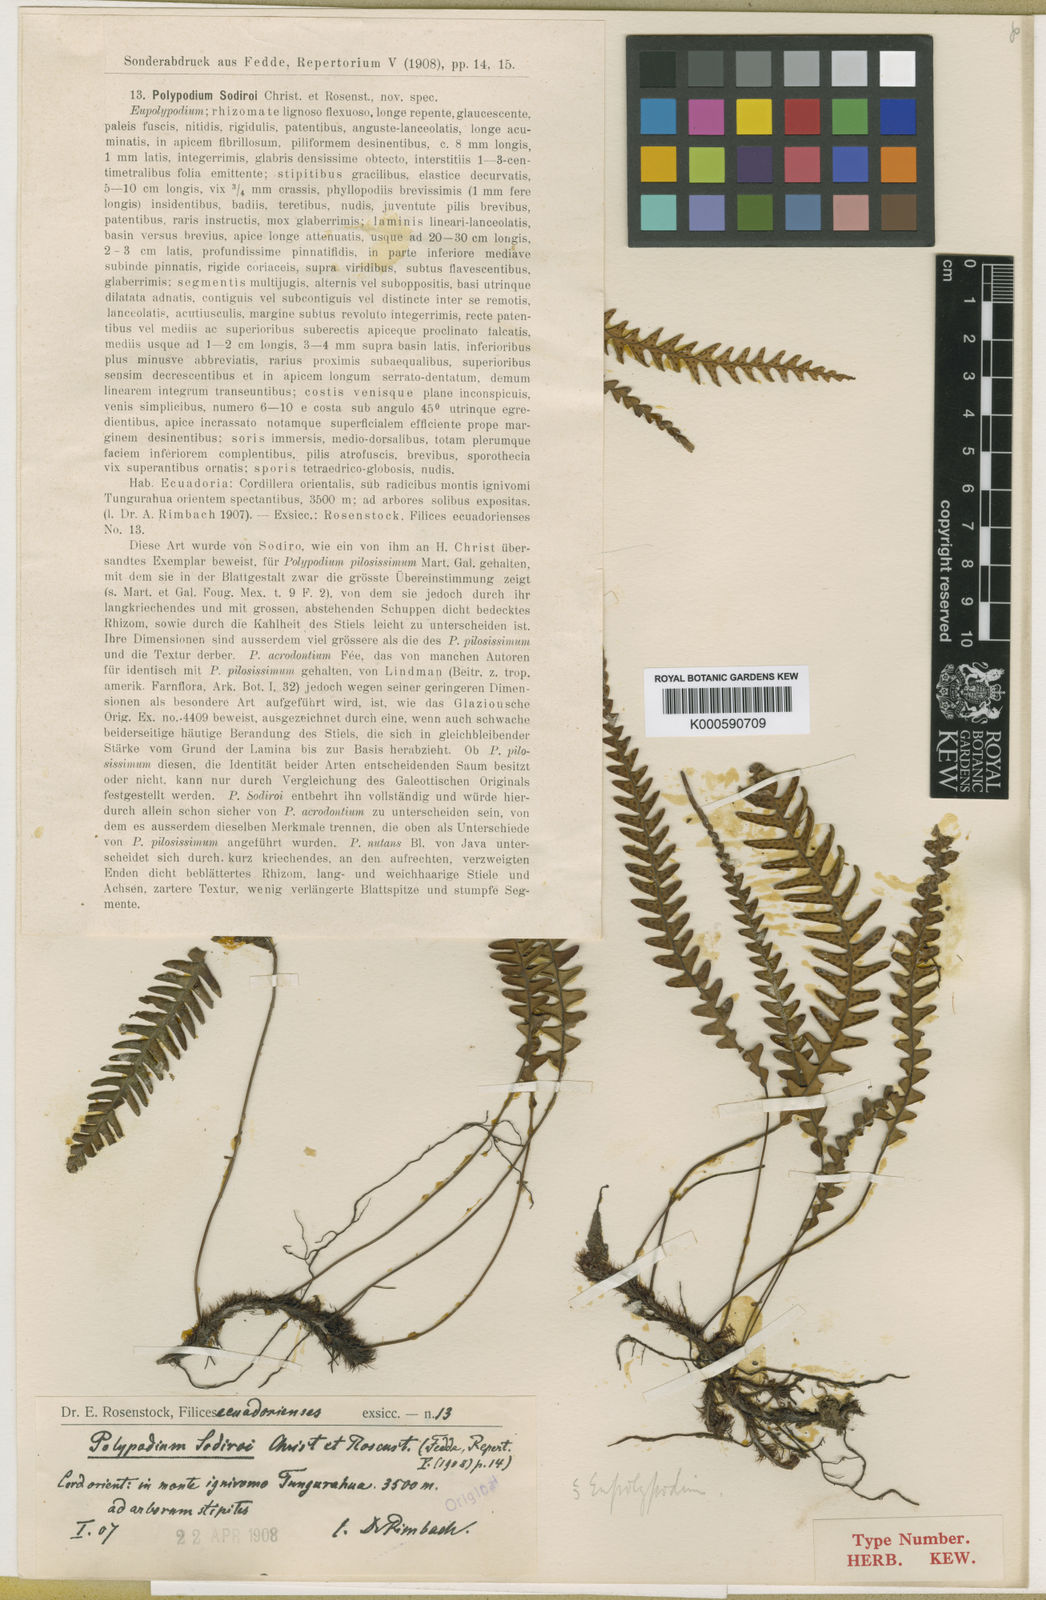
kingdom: Plantae
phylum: Tracheophyta
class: Polypodiopsida
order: Polypodiales
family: Polypodiaceae
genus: Melpomene
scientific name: Melpomene sodiroi
